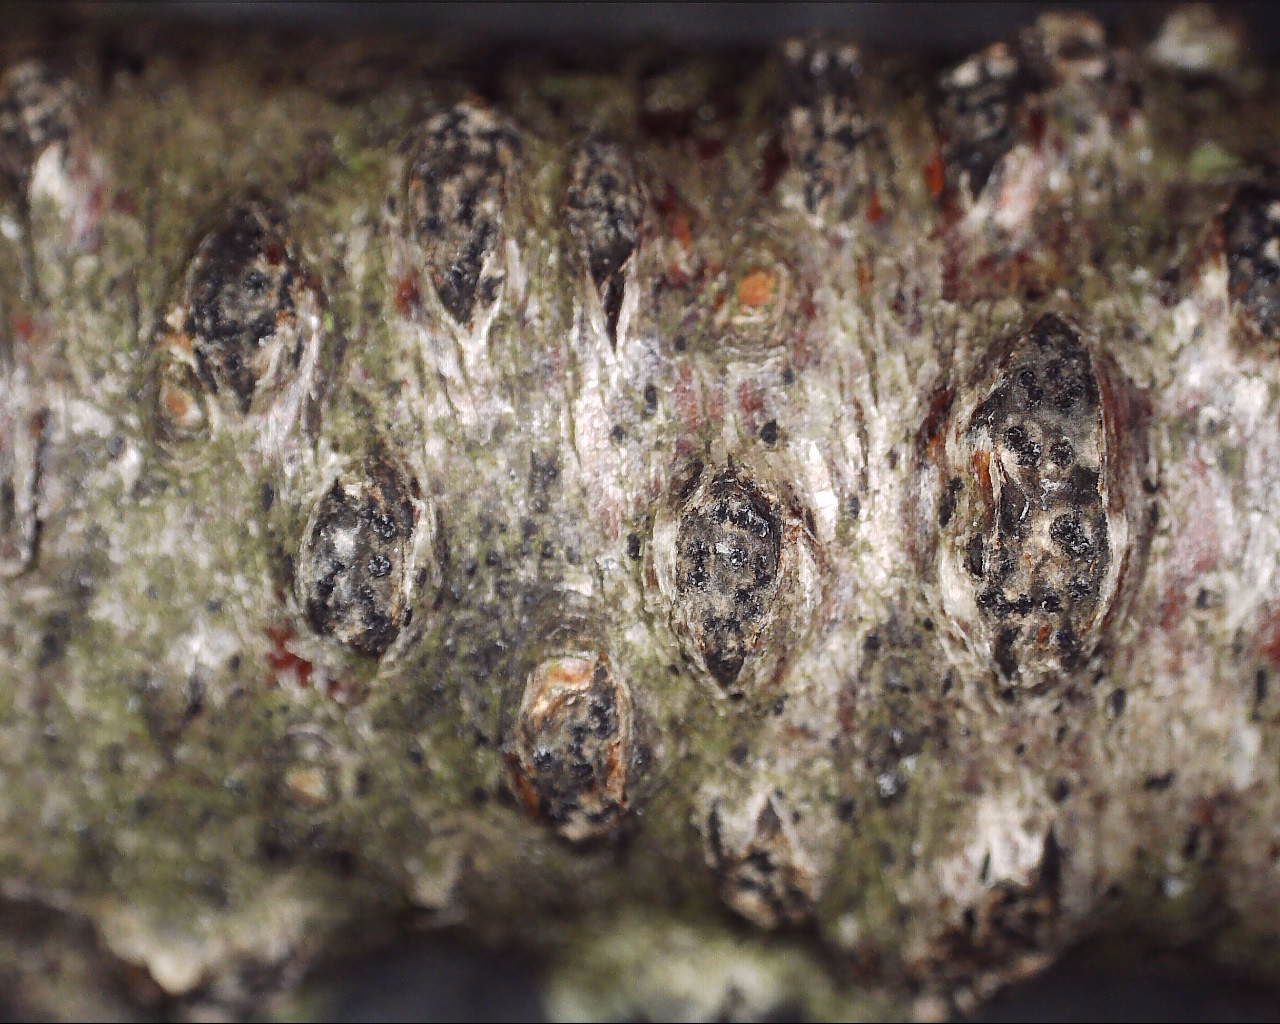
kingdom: Fungi
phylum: Ascomycota
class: Sordariomycetes
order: Xylariales
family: Diatrypaceae
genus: Diatrypella
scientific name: Diatrypella favacea
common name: klemt kulskorpe
